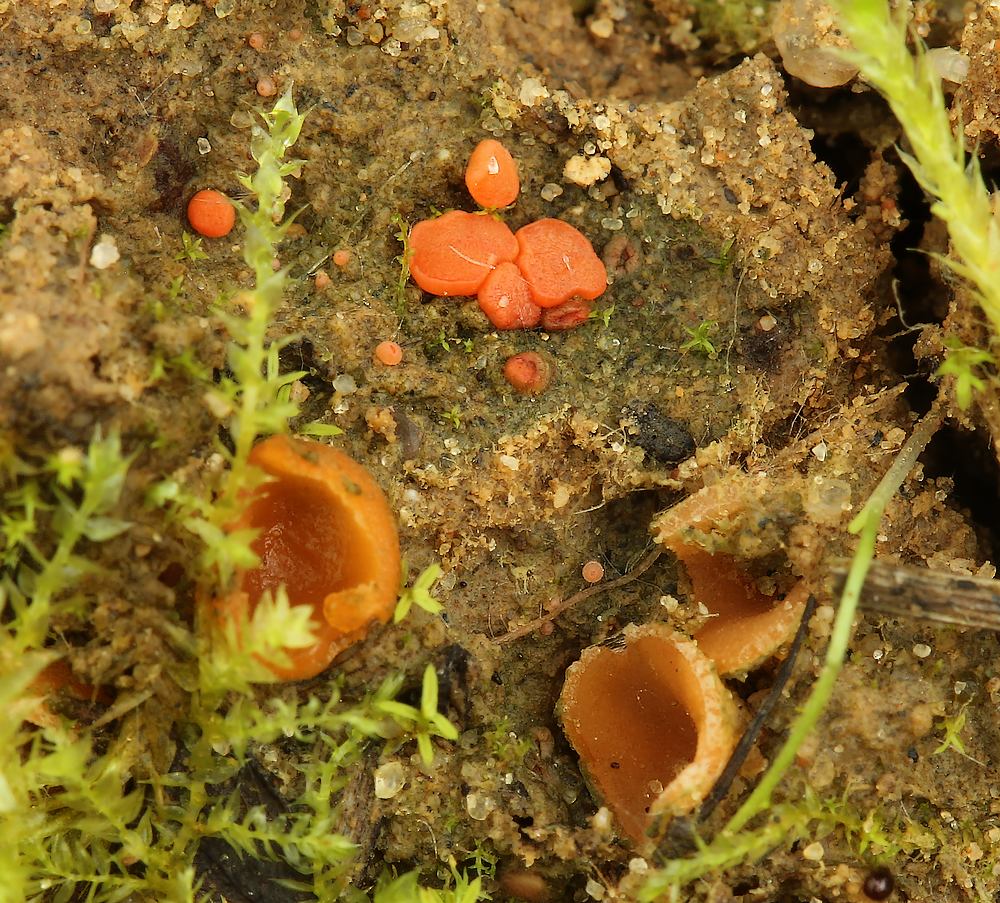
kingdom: Fungi
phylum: Ascomycota
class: Pezizomycetes
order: Pezizales
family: Pyronemataceae
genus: Geopora
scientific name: Geopora semi-immersa
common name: nedsænket børstebæger
